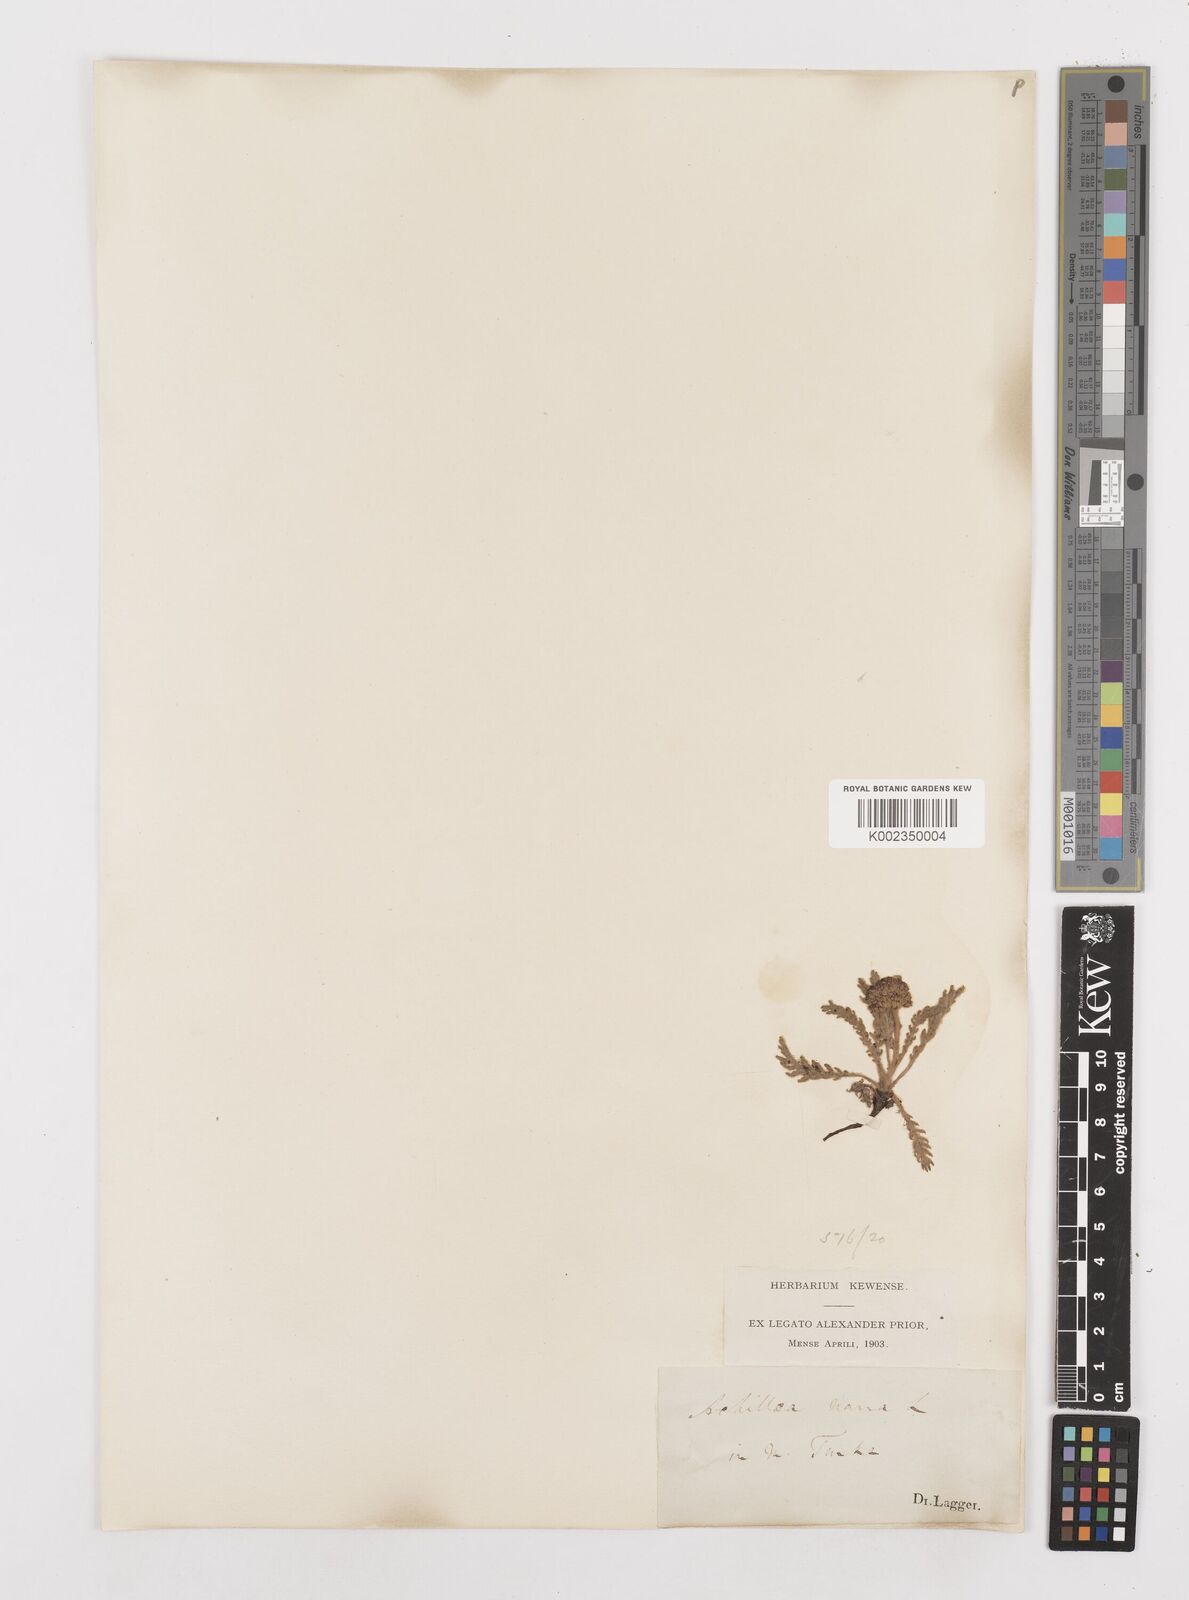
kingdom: Plantae
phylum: Tracheophyta
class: Magnoliopsida
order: Asterales
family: Asteraceae
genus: Achillea
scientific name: Achillea nana
